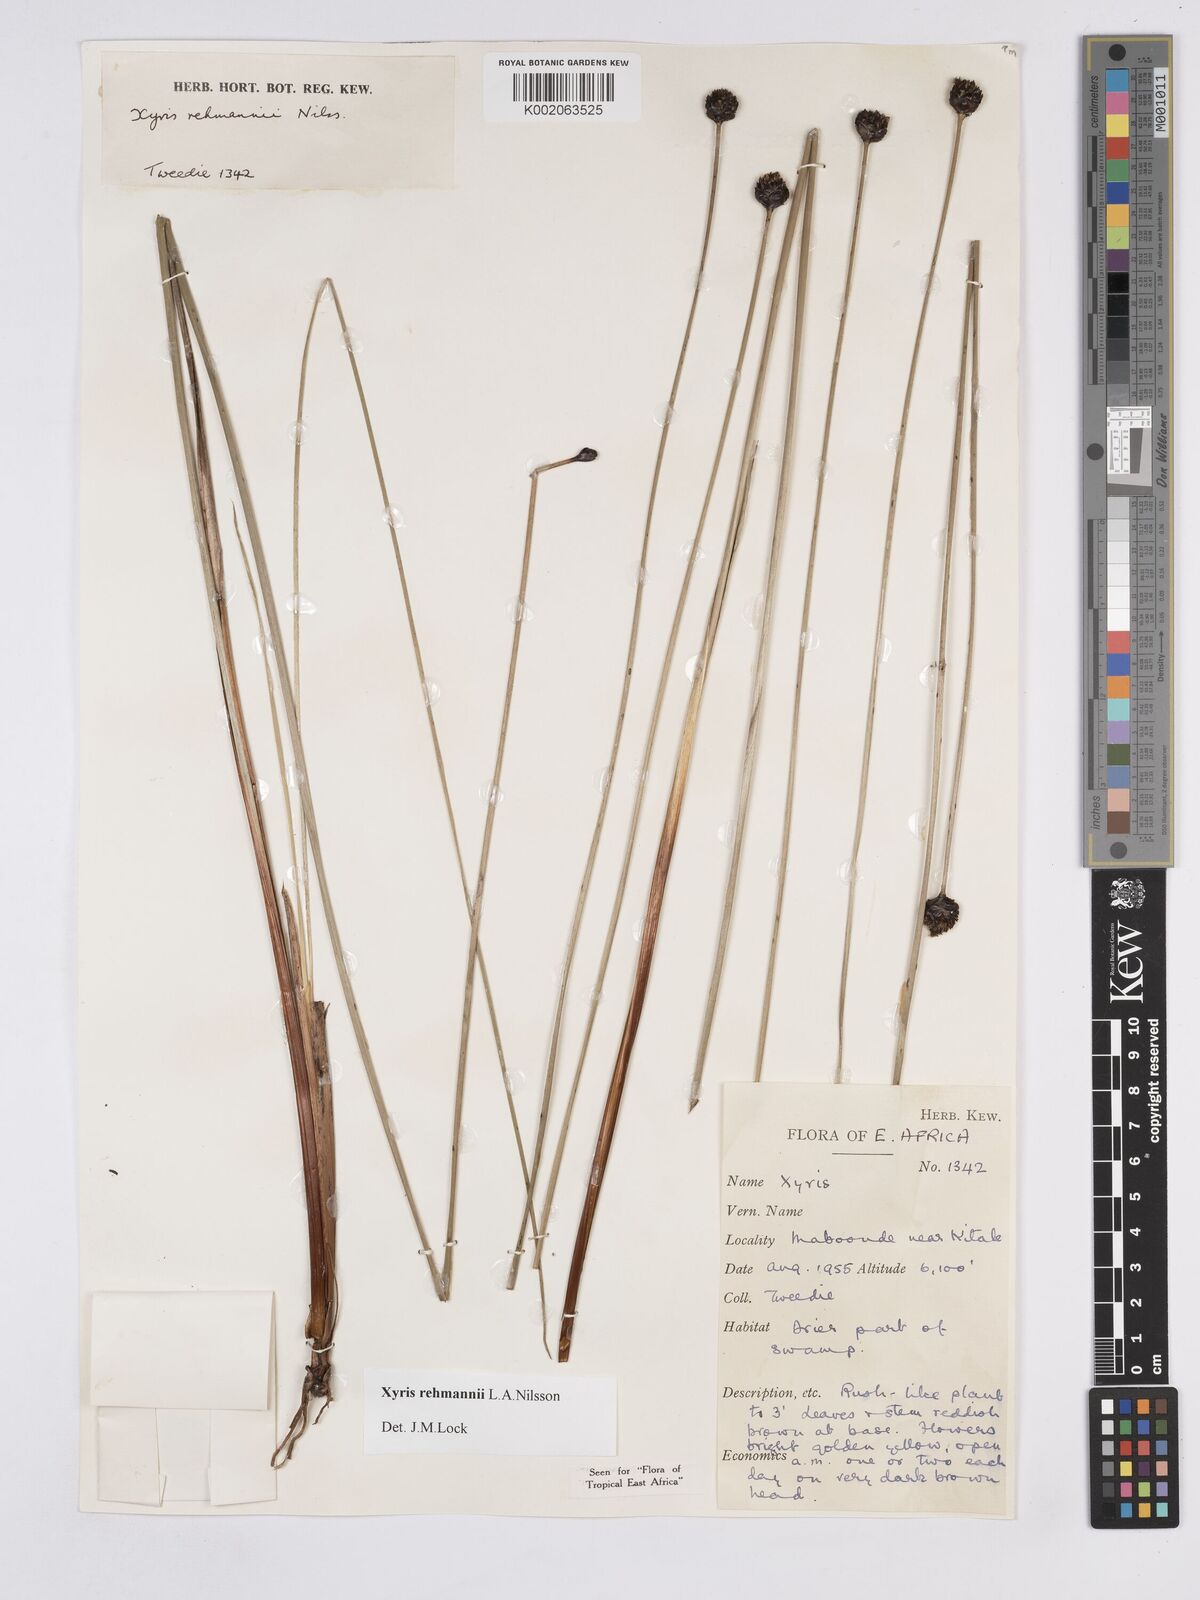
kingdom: Plantae
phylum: Tracheophyta
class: Liliopsida
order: Poales
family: Xyridaceae
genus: Xyris
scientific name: Xyris rehmannii
